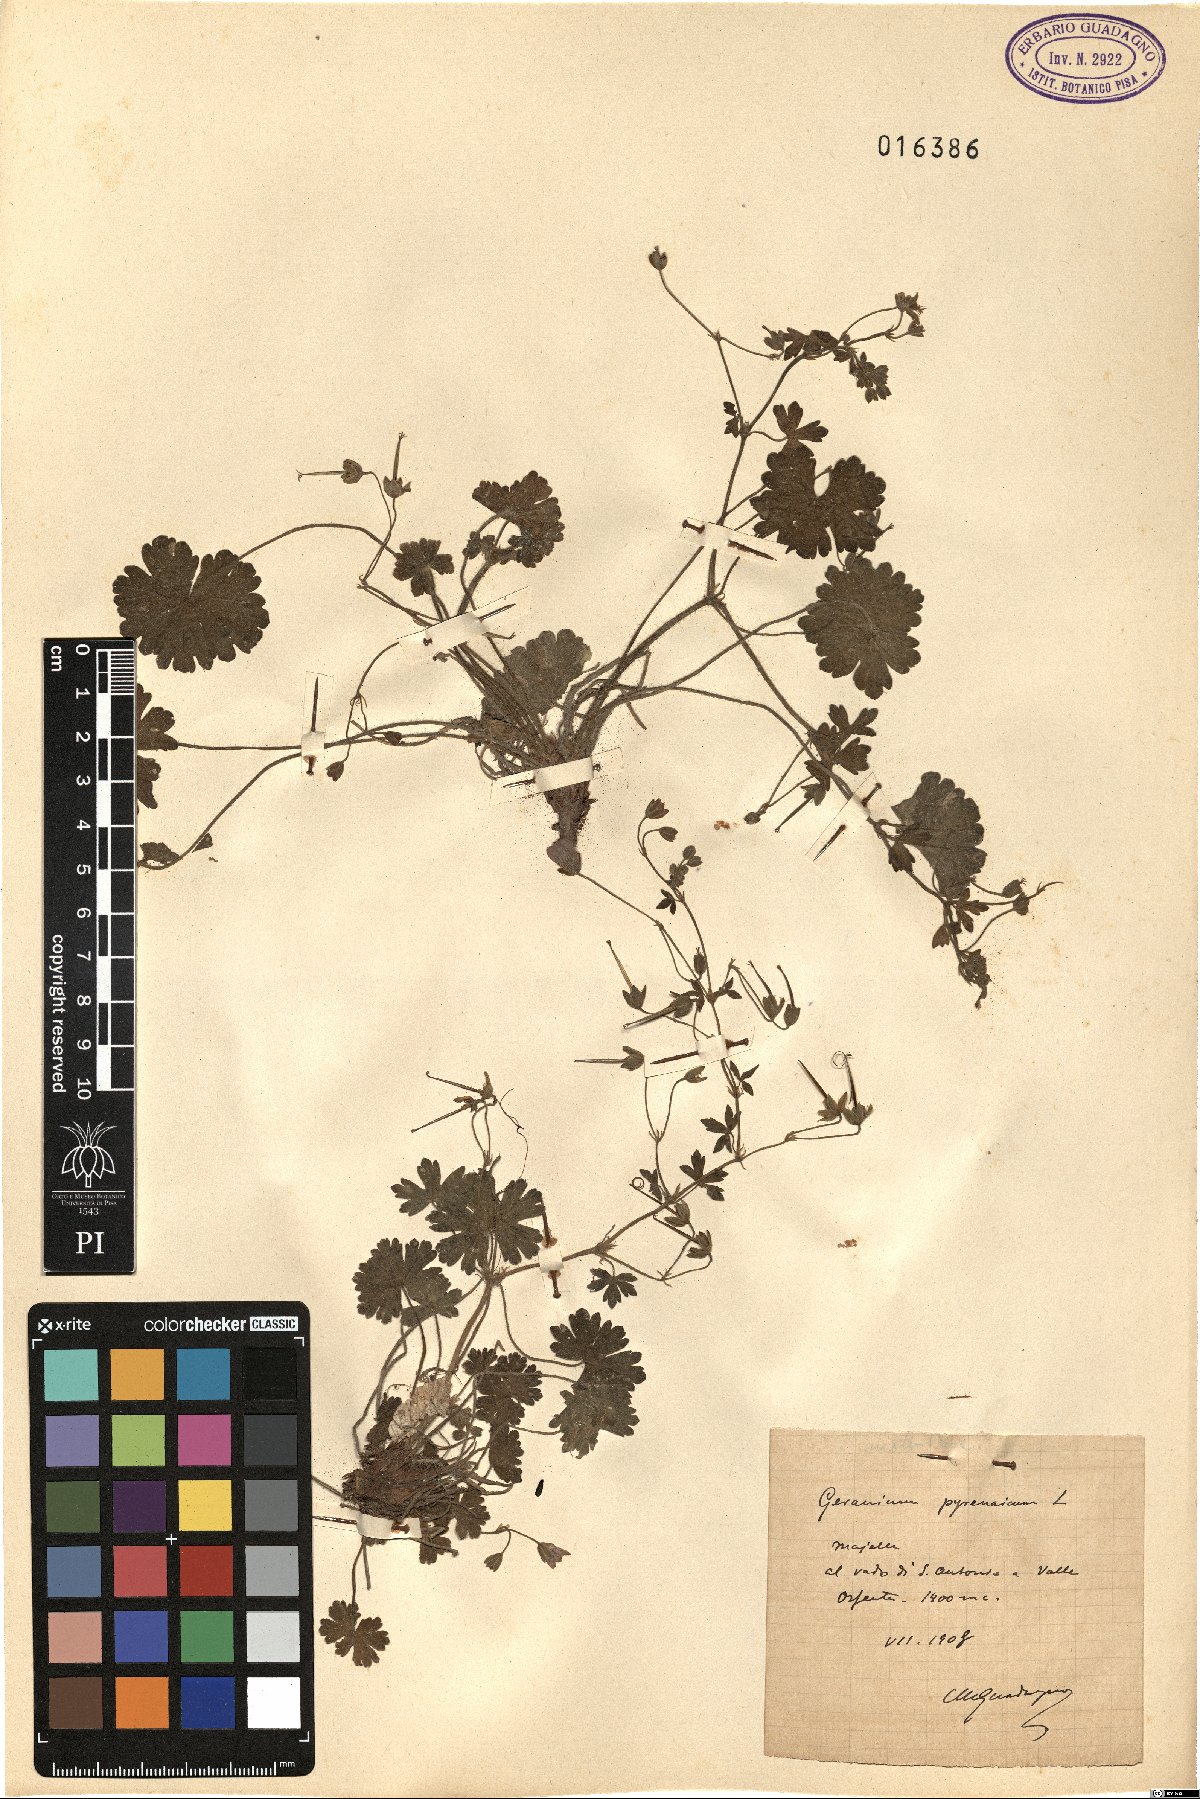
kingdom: Plantae
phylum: Tracheophyta
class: Magnoliopsida
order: Geraniales
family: Geraniaceae
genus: Geranium
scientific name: Geranium pyrenaicum
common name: Hedgerow crane's-bill
